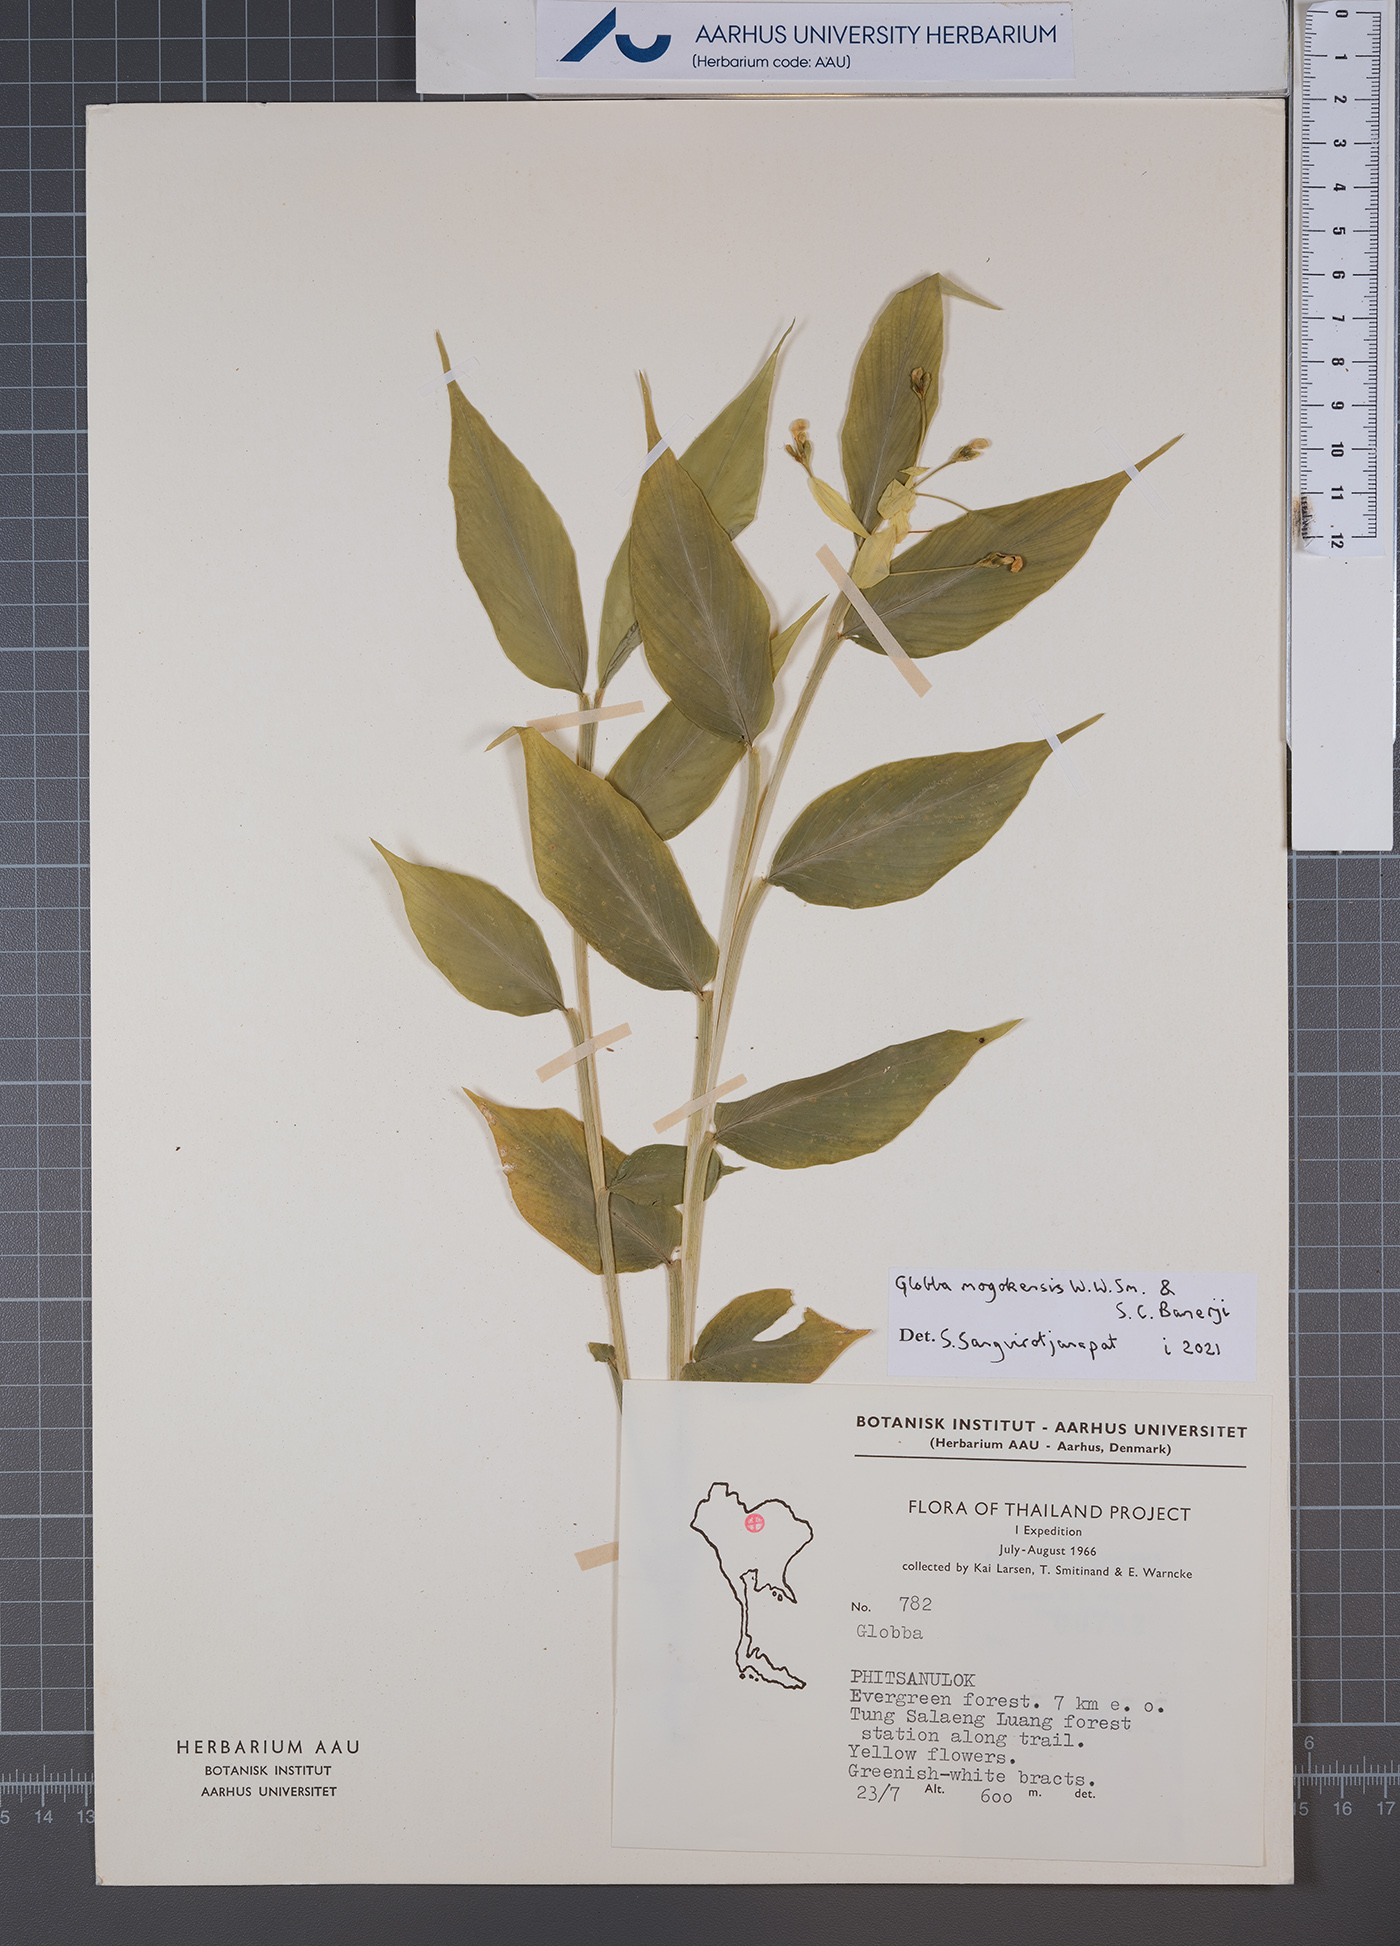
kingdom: Plantae
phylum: Tracheophyta
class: Liliopsida
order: Zingiberales
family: Zingiberaceae
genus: Globba
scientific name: Globba mogokensis
